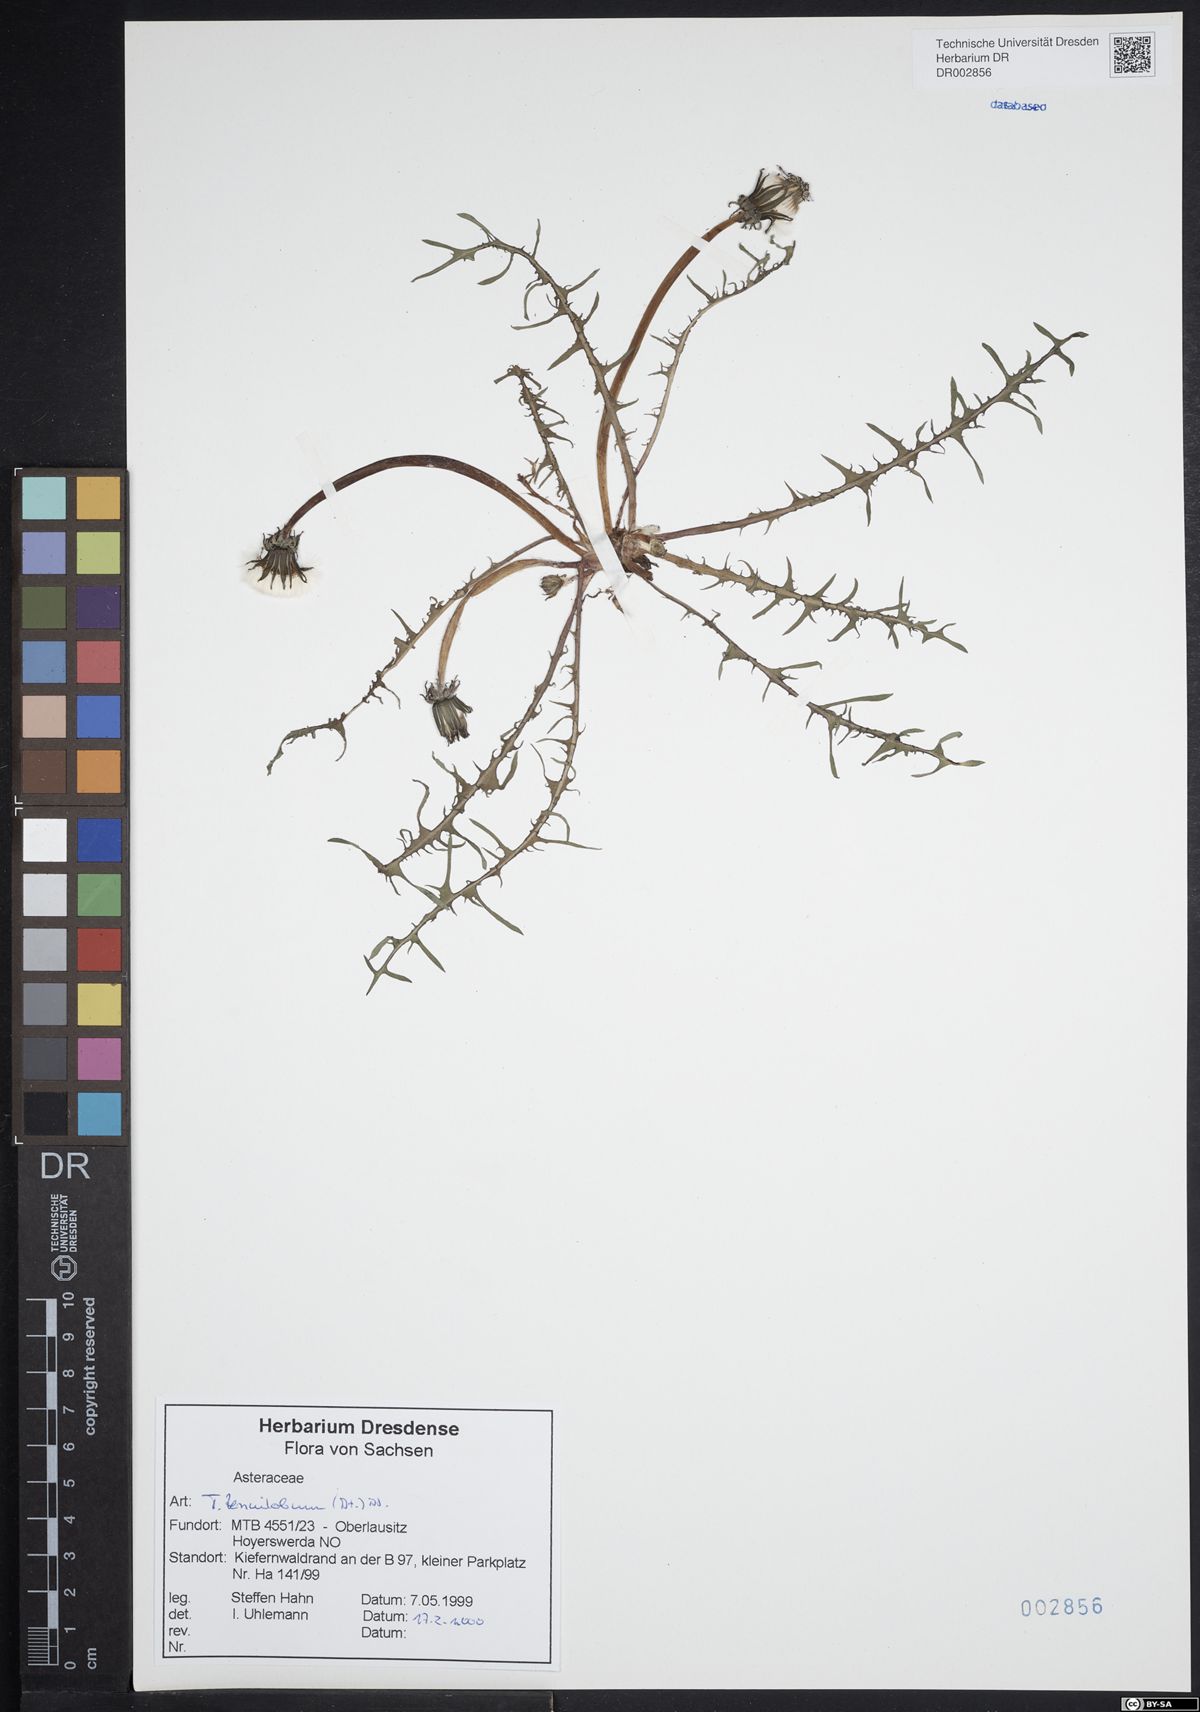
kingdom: Plantae
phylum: Tracheophyta
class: Magnoliopsida
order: Asterales
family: Asteraceae
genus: Taraxacum
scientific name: Taraxacum tenuilobum
